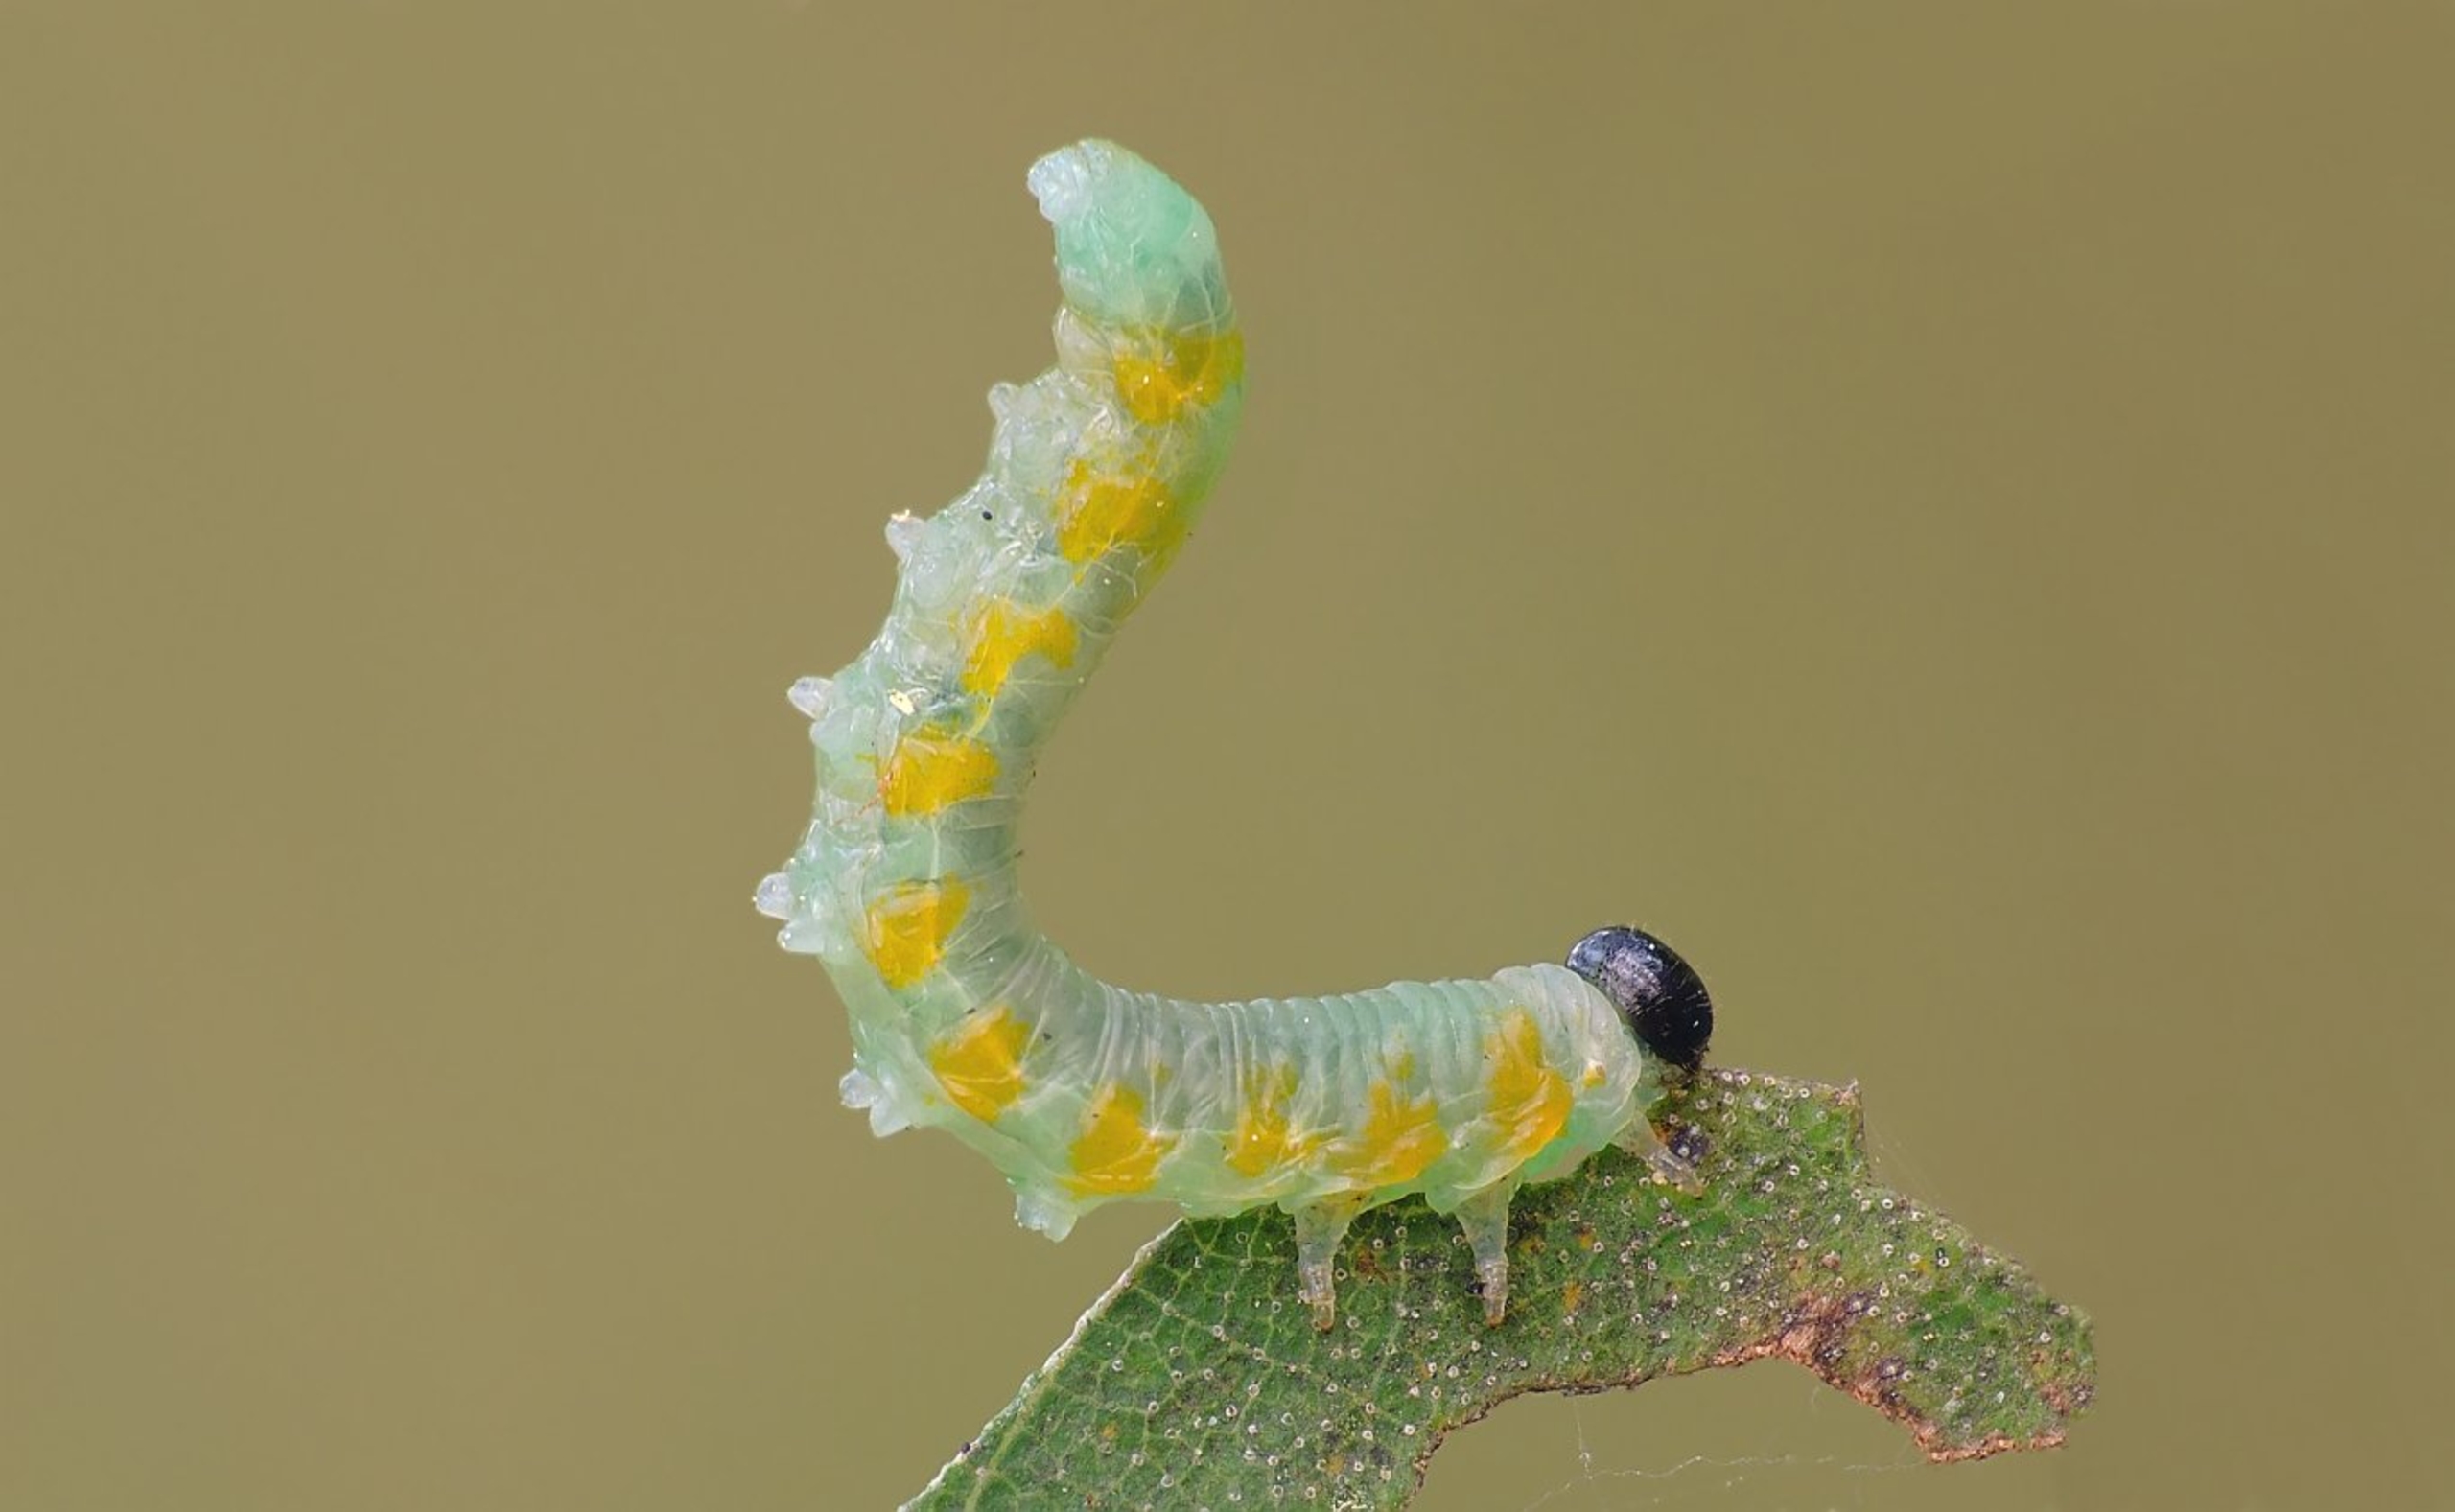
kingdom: Animalia
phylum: Arthropoda
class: Insecta
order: Hymenoptera
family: Tenthredinidae
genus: Pristiphora
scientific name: Pristiphora testacea
